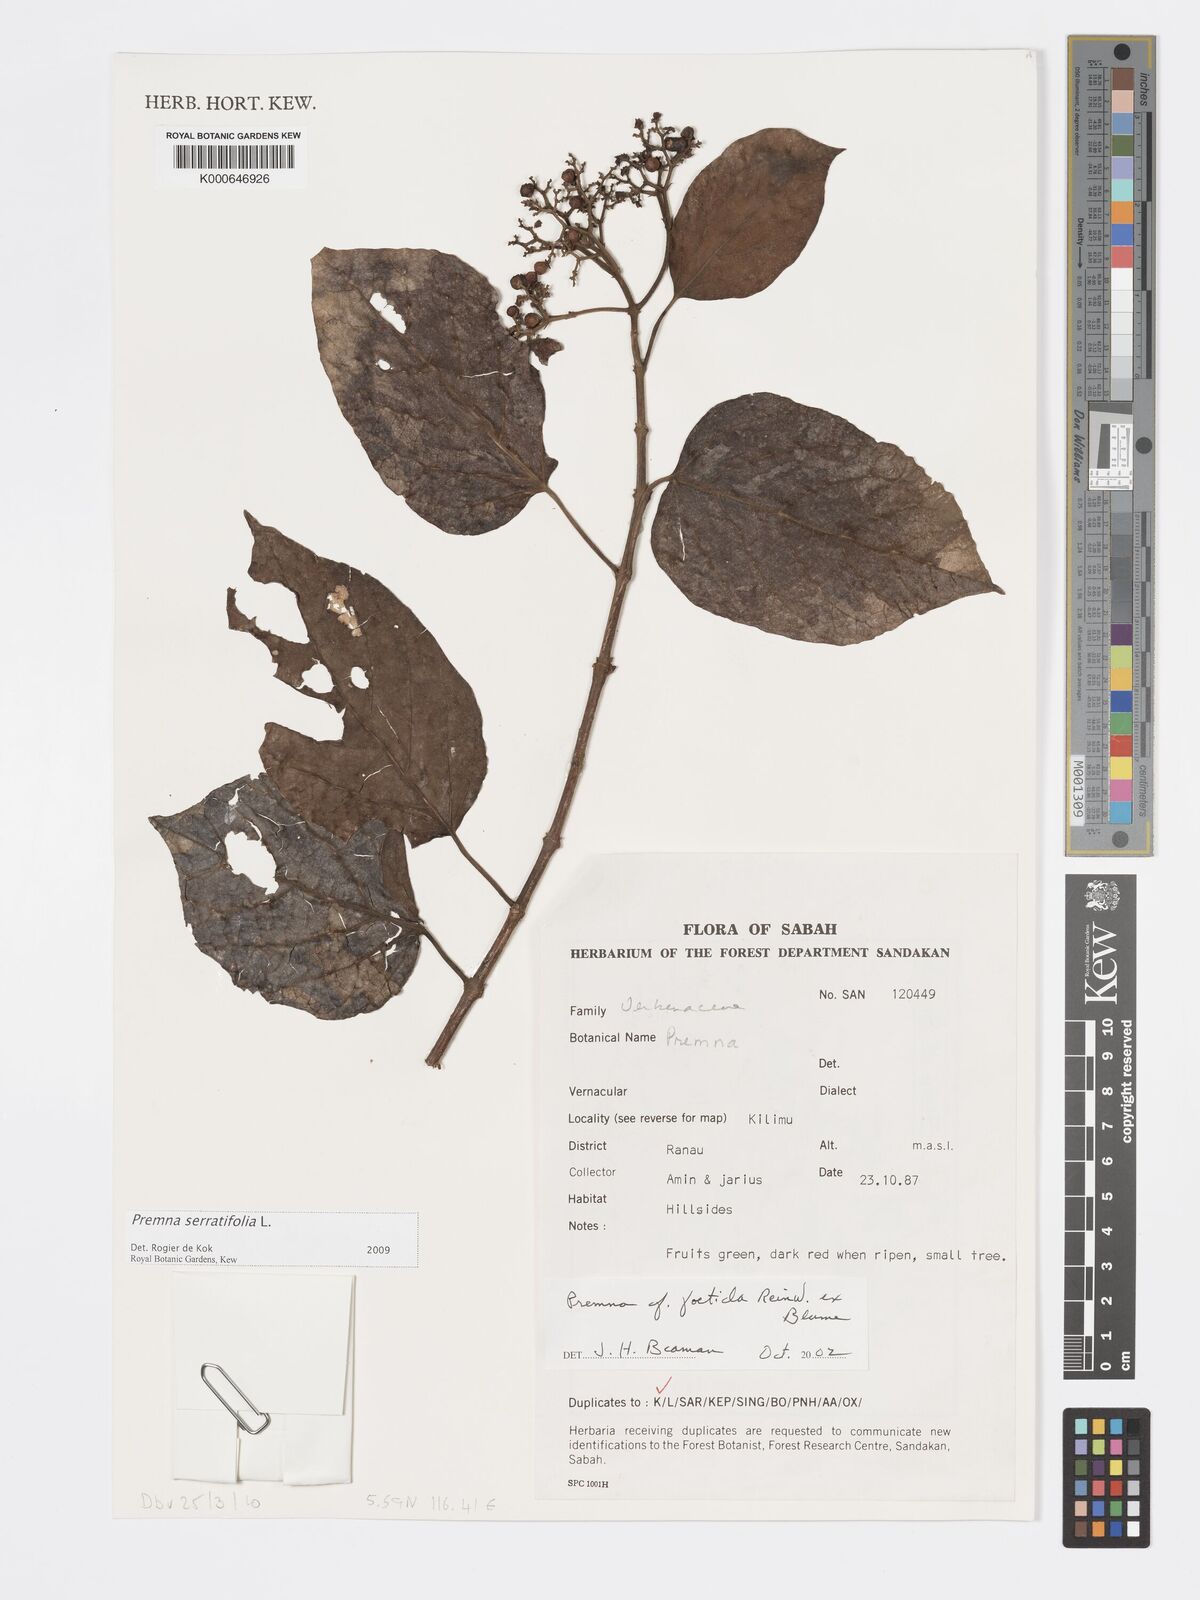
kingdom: Plantae
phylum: Tracheophyta
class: Magnoliopsida
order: Lamiales
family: Lamiaceae
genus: Premna
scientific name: Premna serratifolia
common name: Bastard guelder
